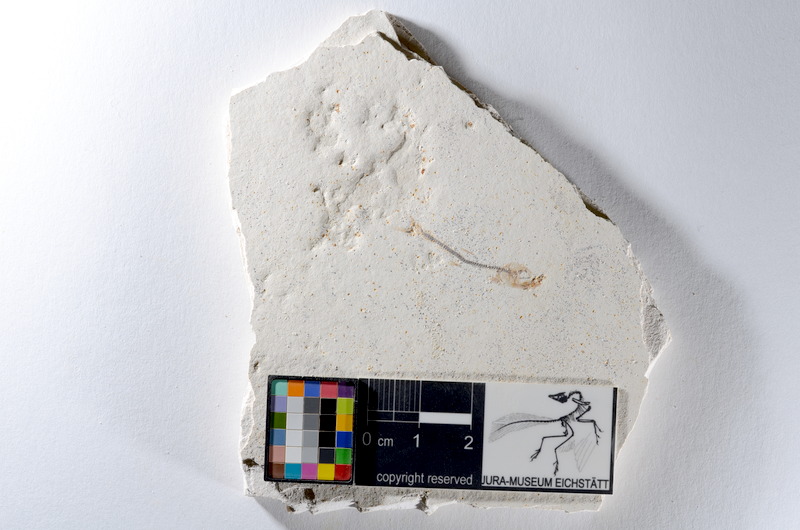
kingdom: Animalia
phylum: Chordata
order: Salmoniformes
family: Orthogonikleithridae
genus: Orthogonikleithrus
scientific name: Orthogonikleithrus hoelli
